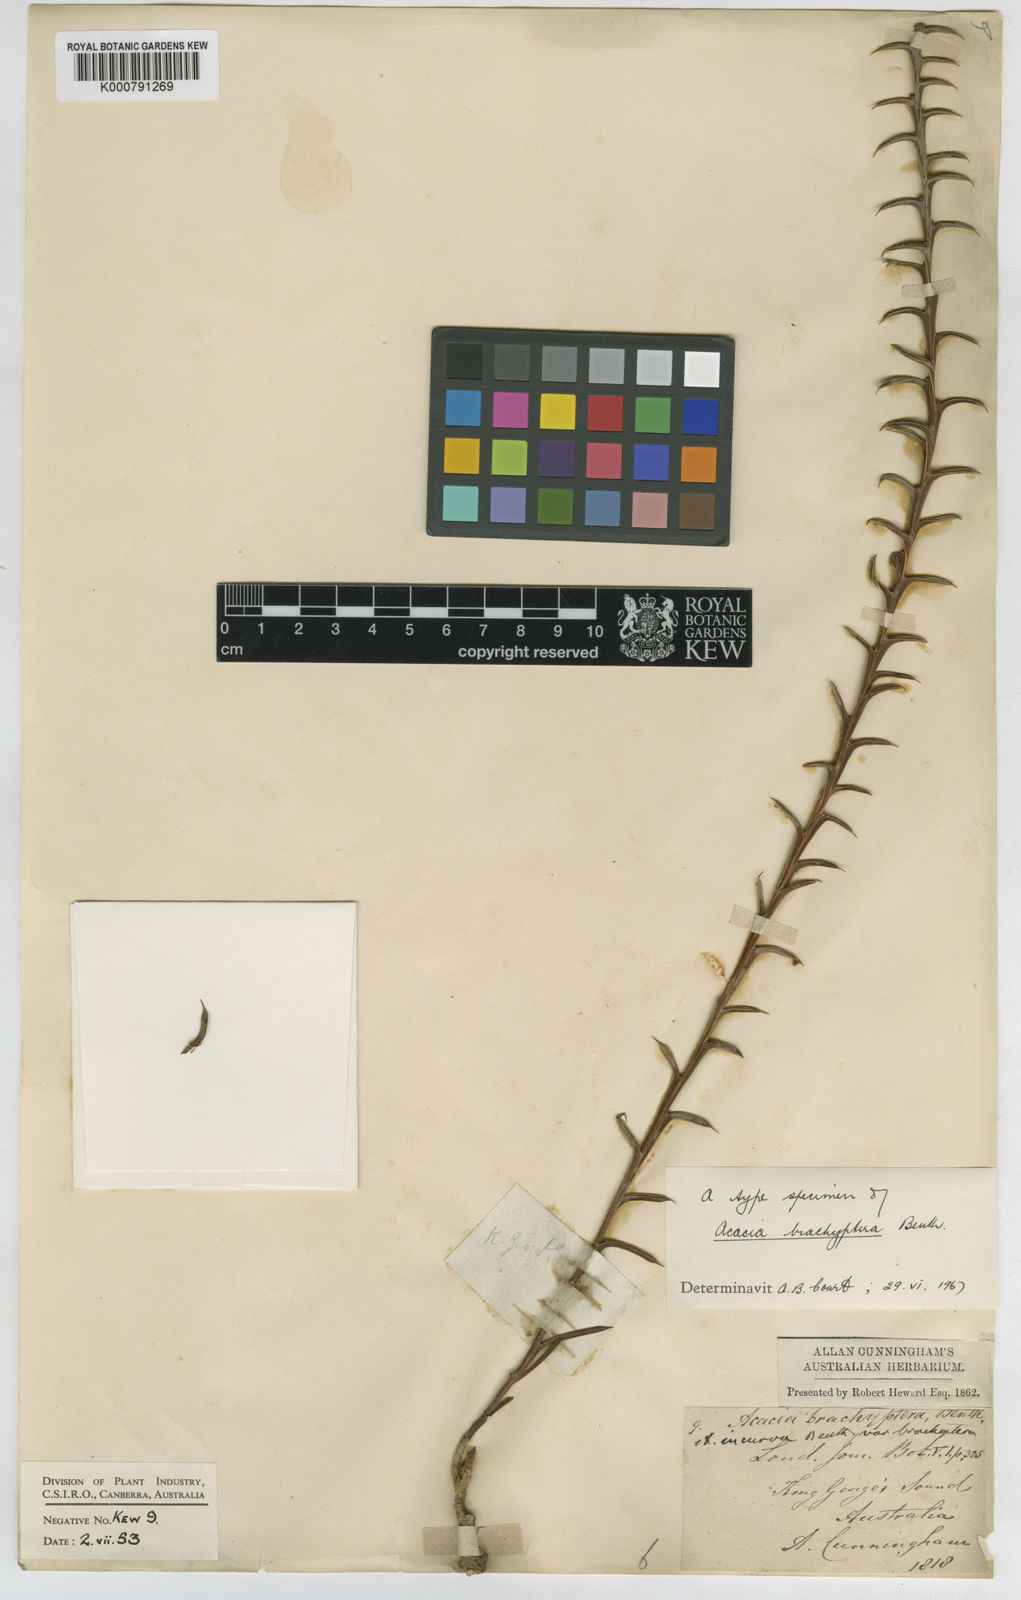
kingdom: Plantae
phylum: Tracheophyta
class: Magnoliopsida
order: Fabales
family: Fabaceae
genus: Acacia
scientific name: Acacia incurva
